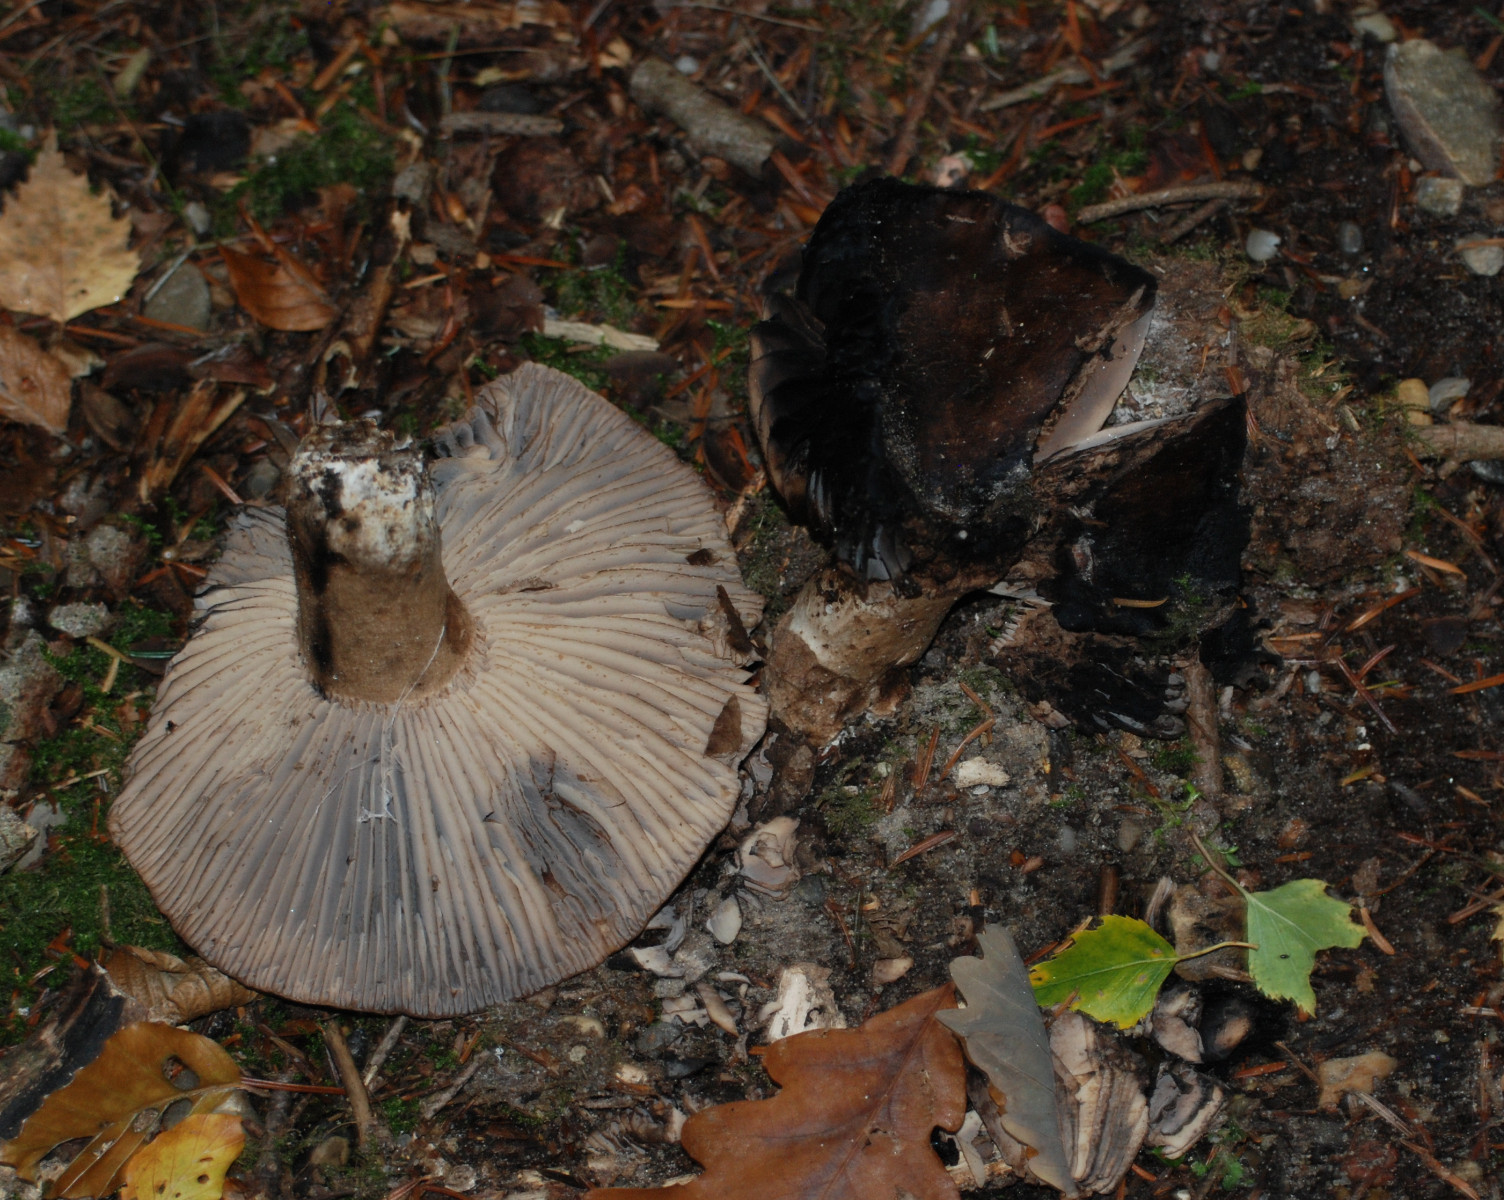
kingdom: Fungi
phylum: Basidiomycota
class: Agaricomycetes
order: Russulales
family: Russulaceae
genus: Russula
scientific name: Russula adusta
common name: sværtende skørhat
